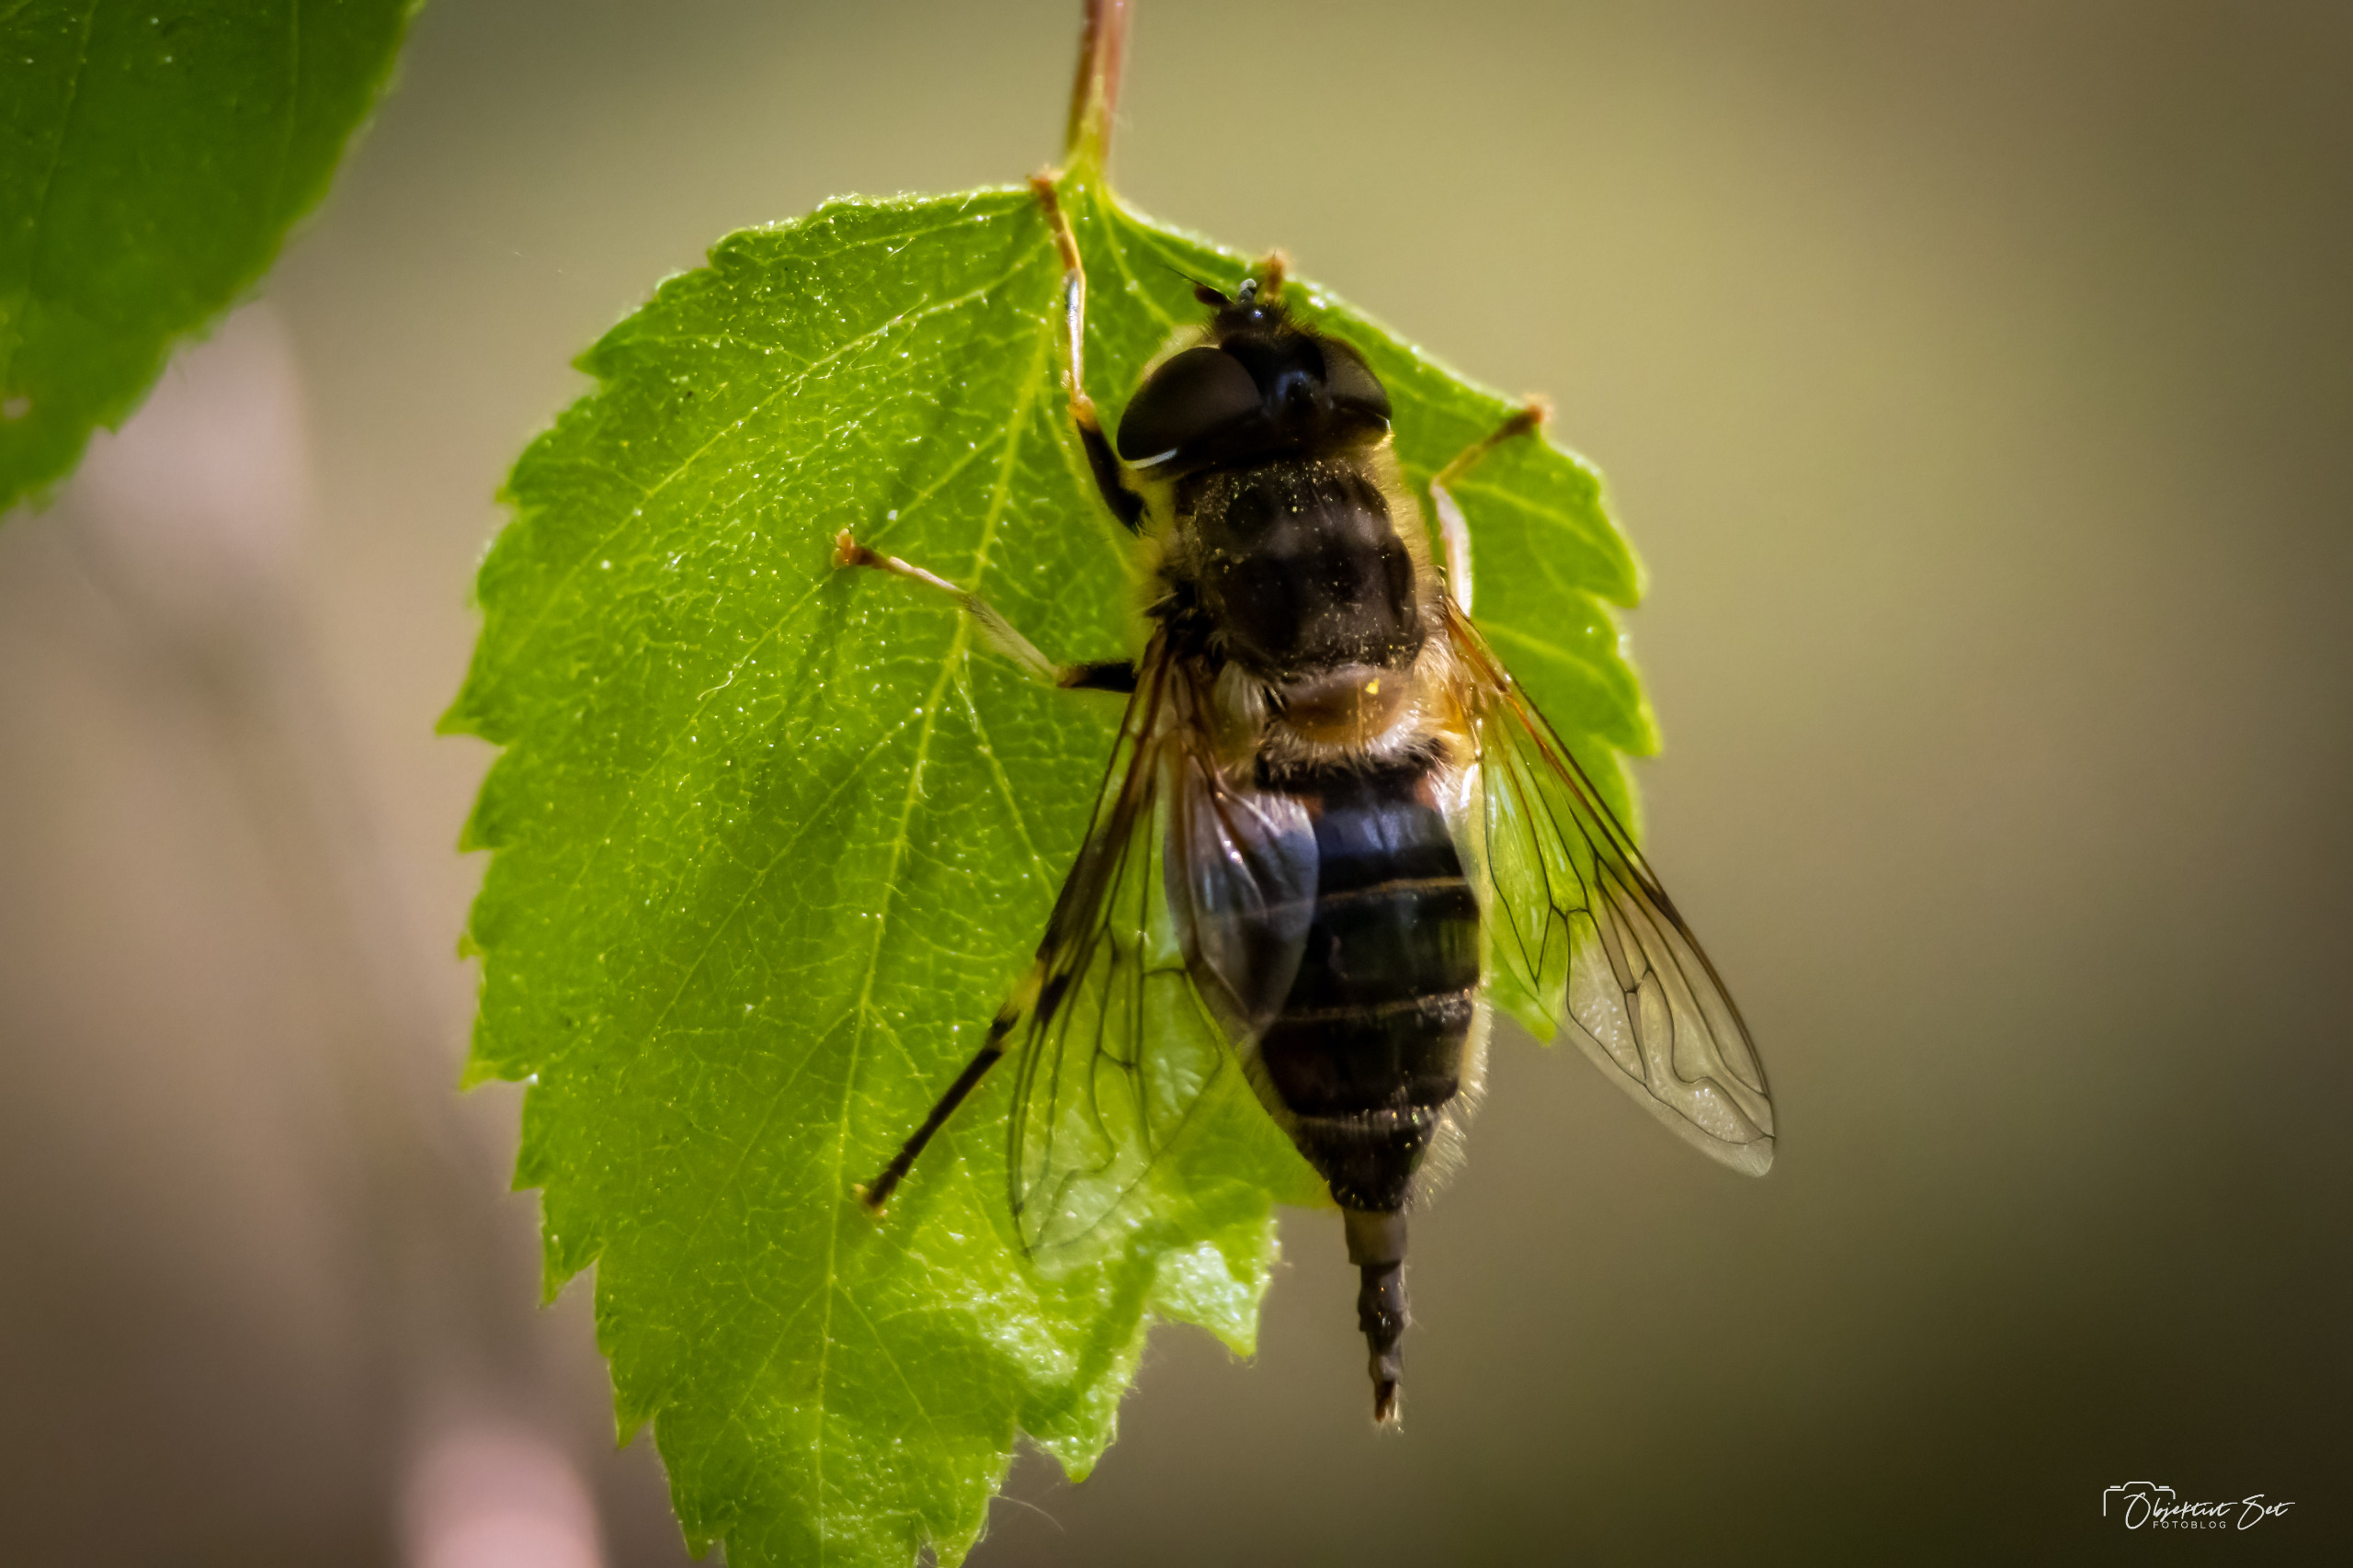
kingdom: Animalia
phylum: Arthropoda
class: Insecta
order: Diptera
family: Syrphidae
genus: Eristalis
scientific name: Eristalis pertinax
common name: Gulfodet dyndflue
